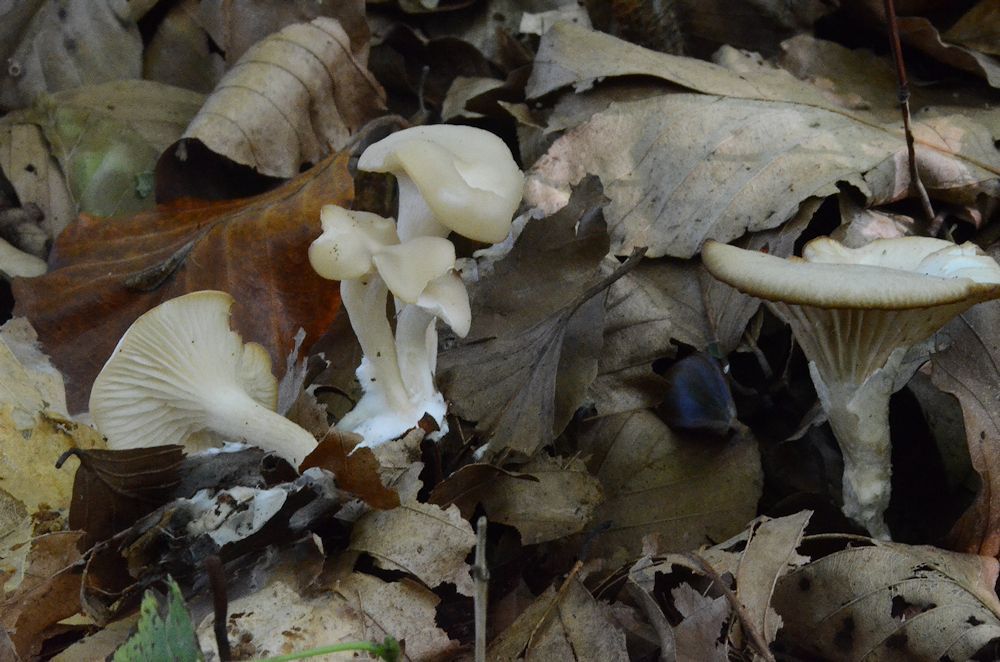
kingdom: Fungi
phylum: Basidiomycota
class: Agaricomycetes
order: Agaricales
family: Tricholomataceae
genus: Clitocybe
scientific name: Clitocybe phaeophthalma
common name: stinkende tragthat
